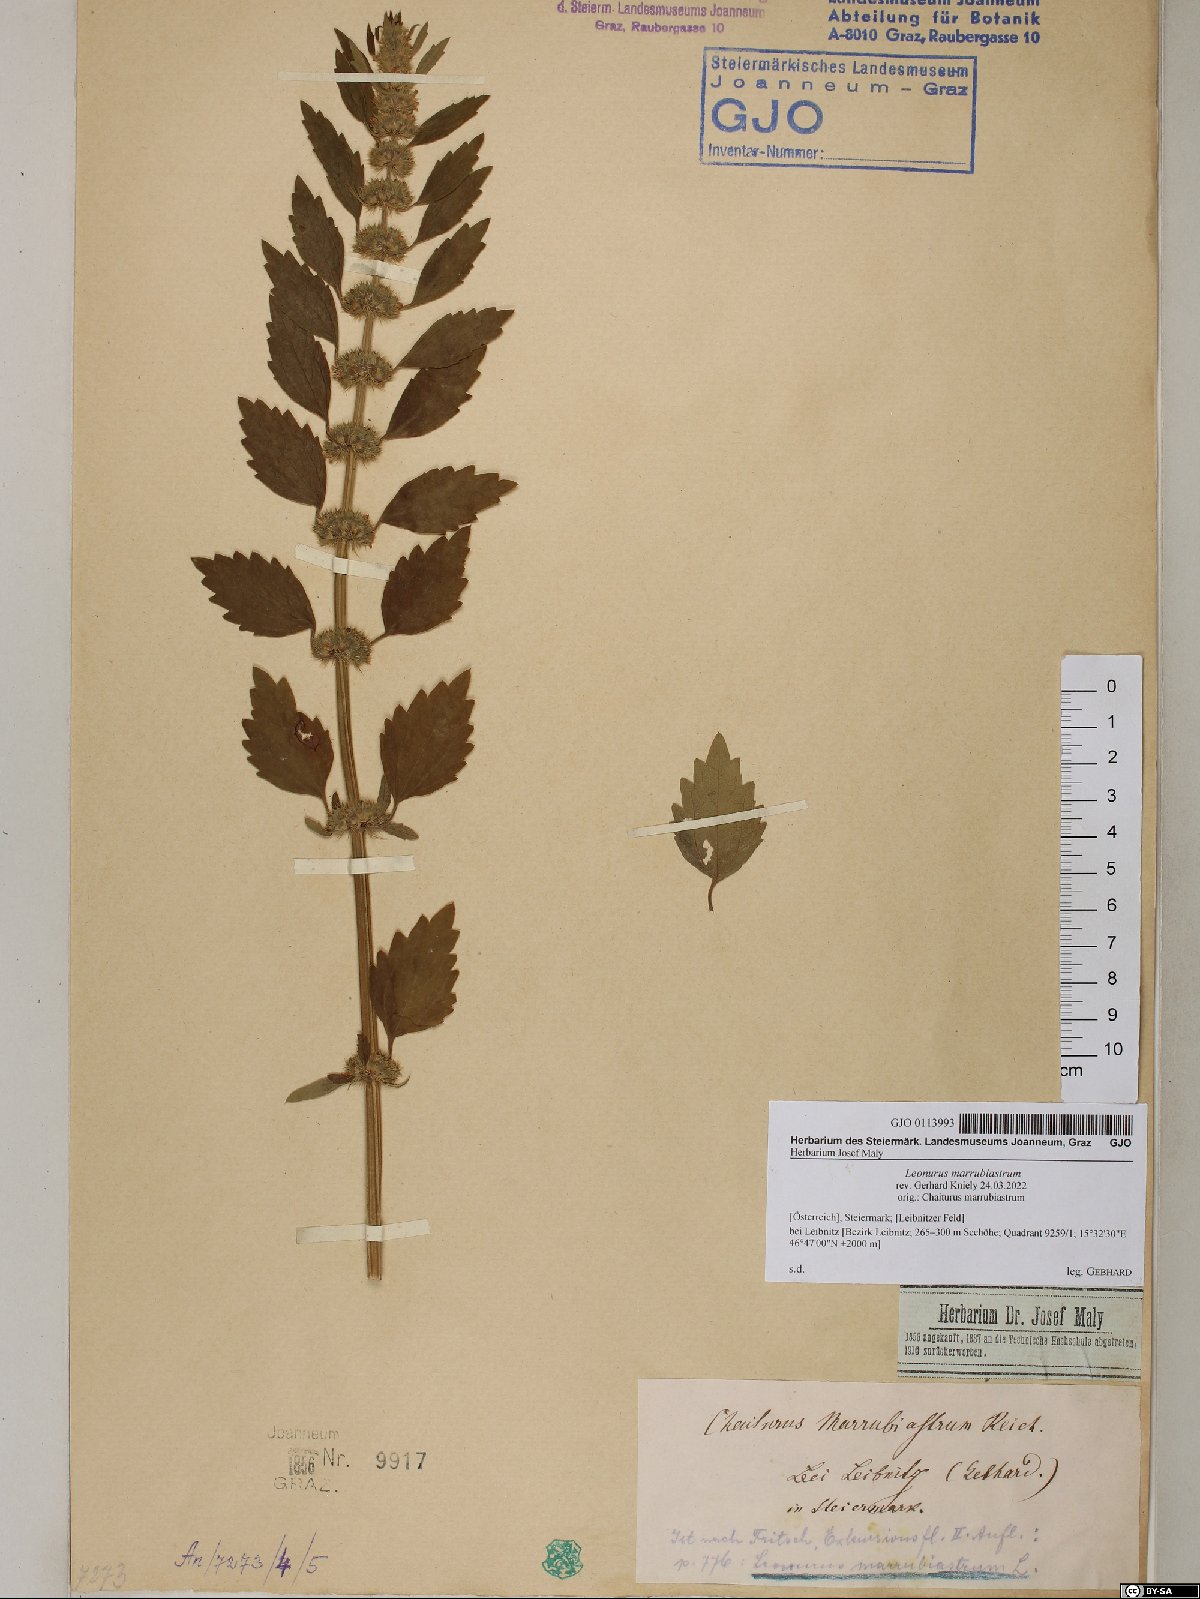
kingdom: Plantae
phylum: Tracheophyta
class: Magnoliopsida
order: Lamiales
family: Lamiaceae
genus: Chaiturus
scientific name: Chaiturus marrubiastrum
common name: Lion's tail
